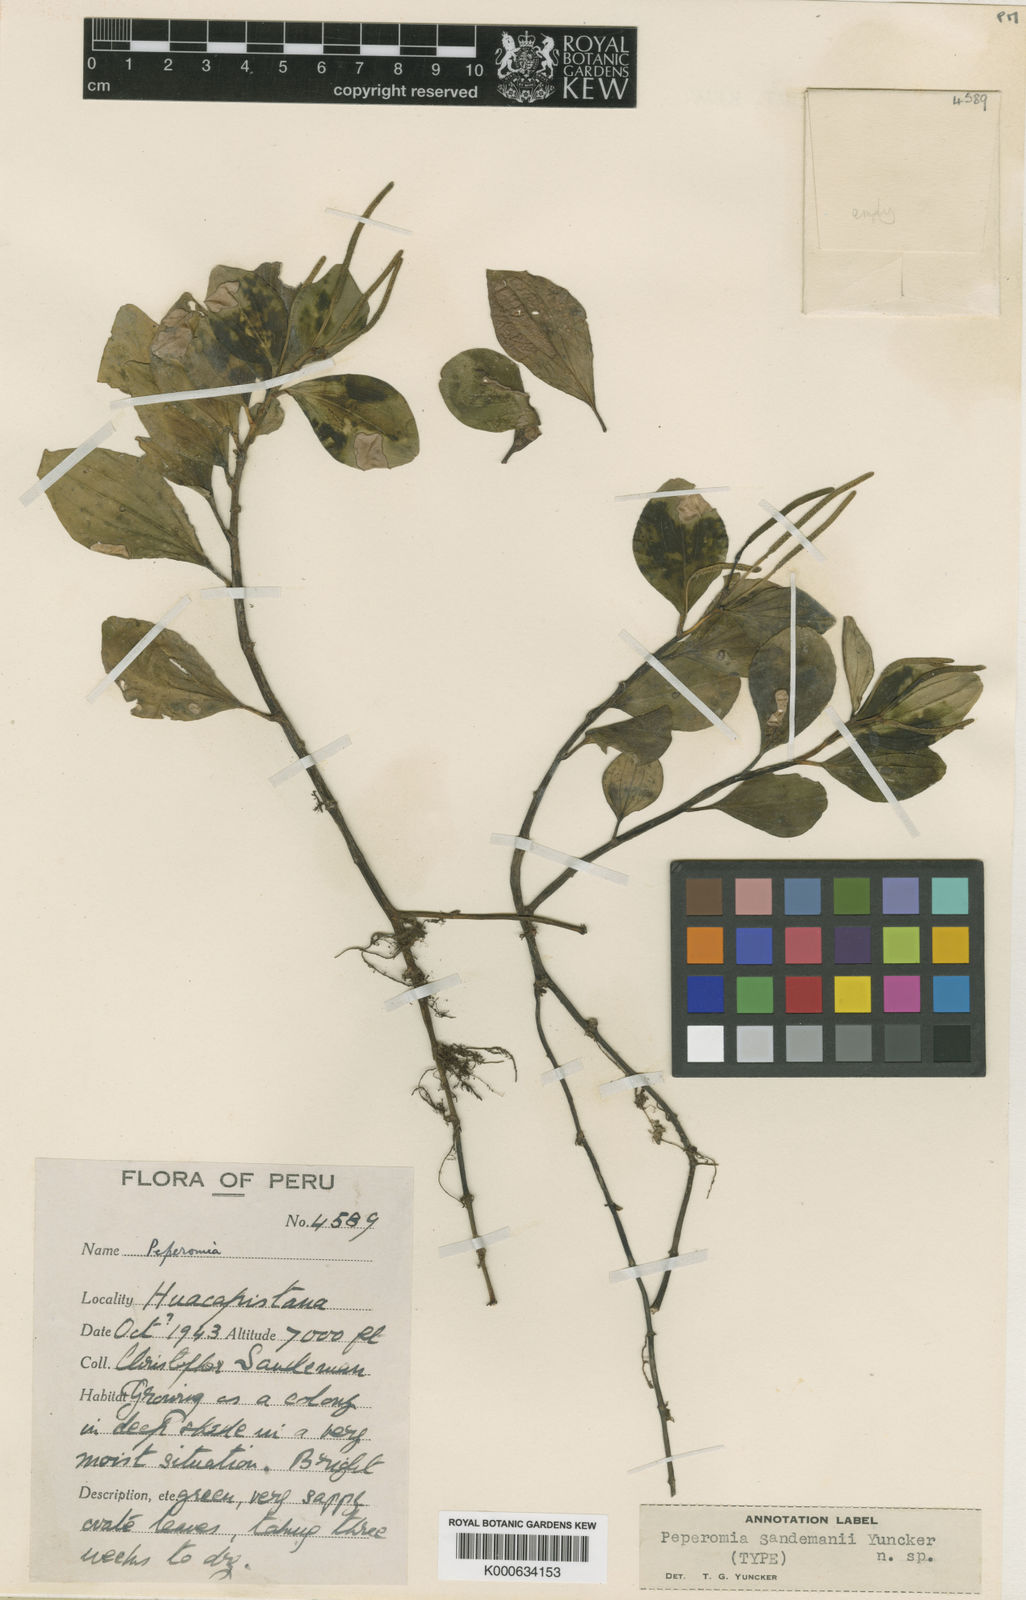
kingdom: Plantae
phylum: Tracheophyta
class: Magnoliopsida
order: Piperales
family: Piperaceae
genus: Peperomia
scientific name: Peperomia sandemanii
